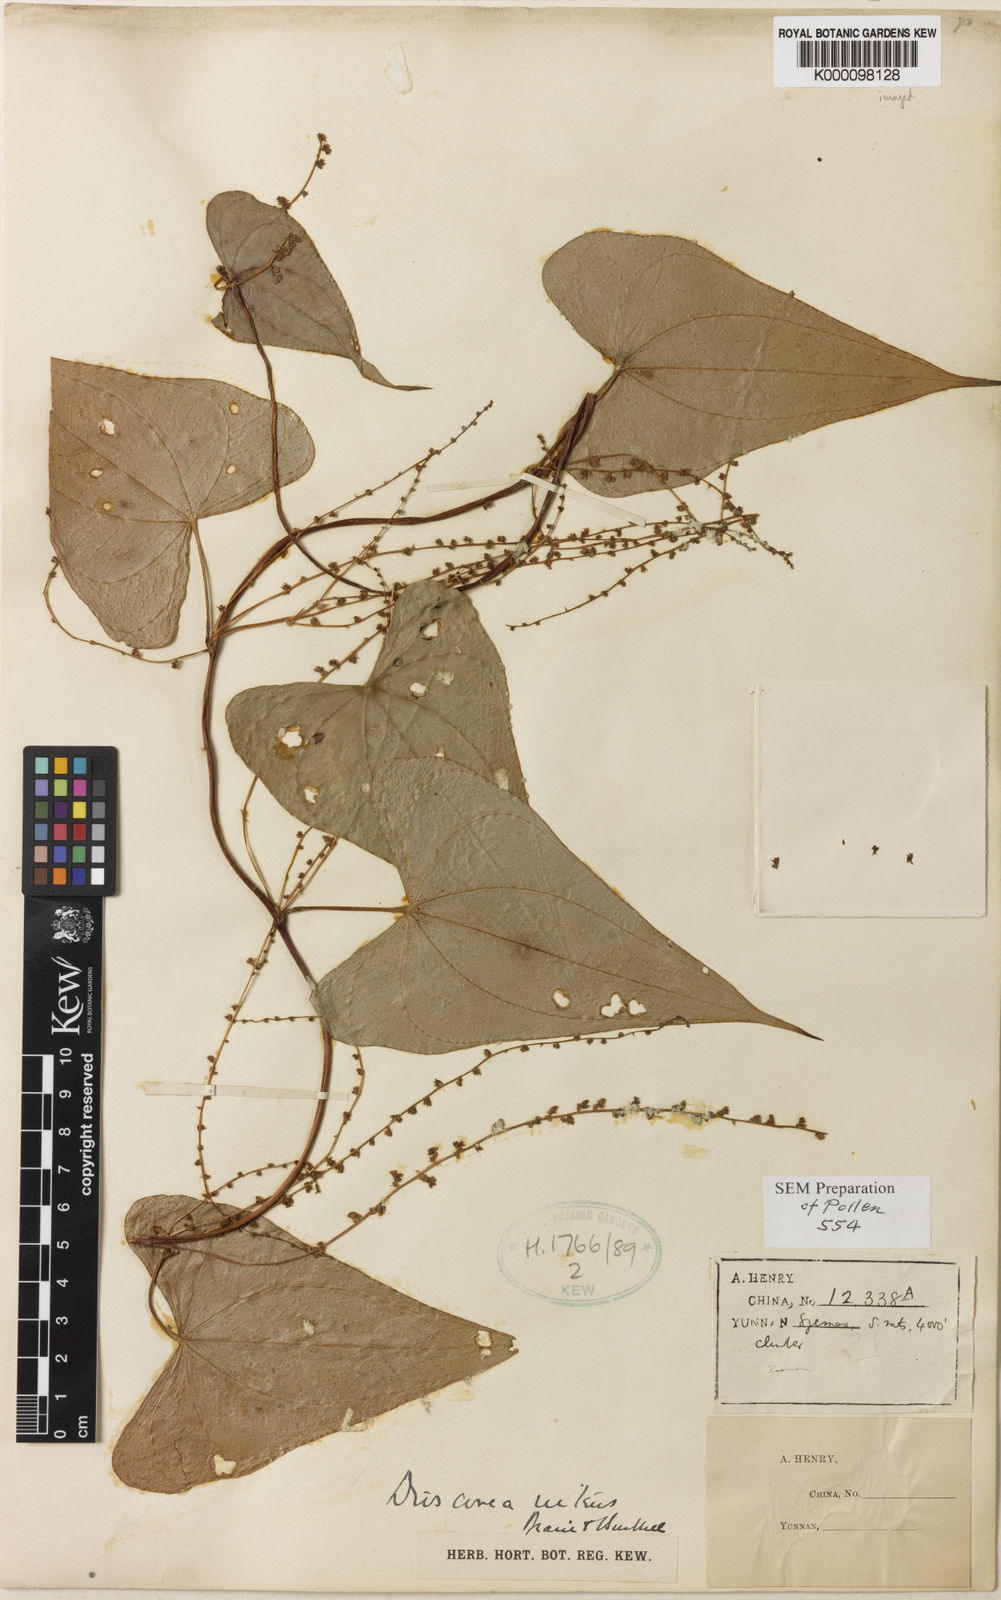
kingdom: Plantae
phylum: Tracheophyta
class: Liliopsida
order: Dioscoreales
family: Dioscoreaceae
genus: Dioscorea
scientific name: Dioscorea nitens
